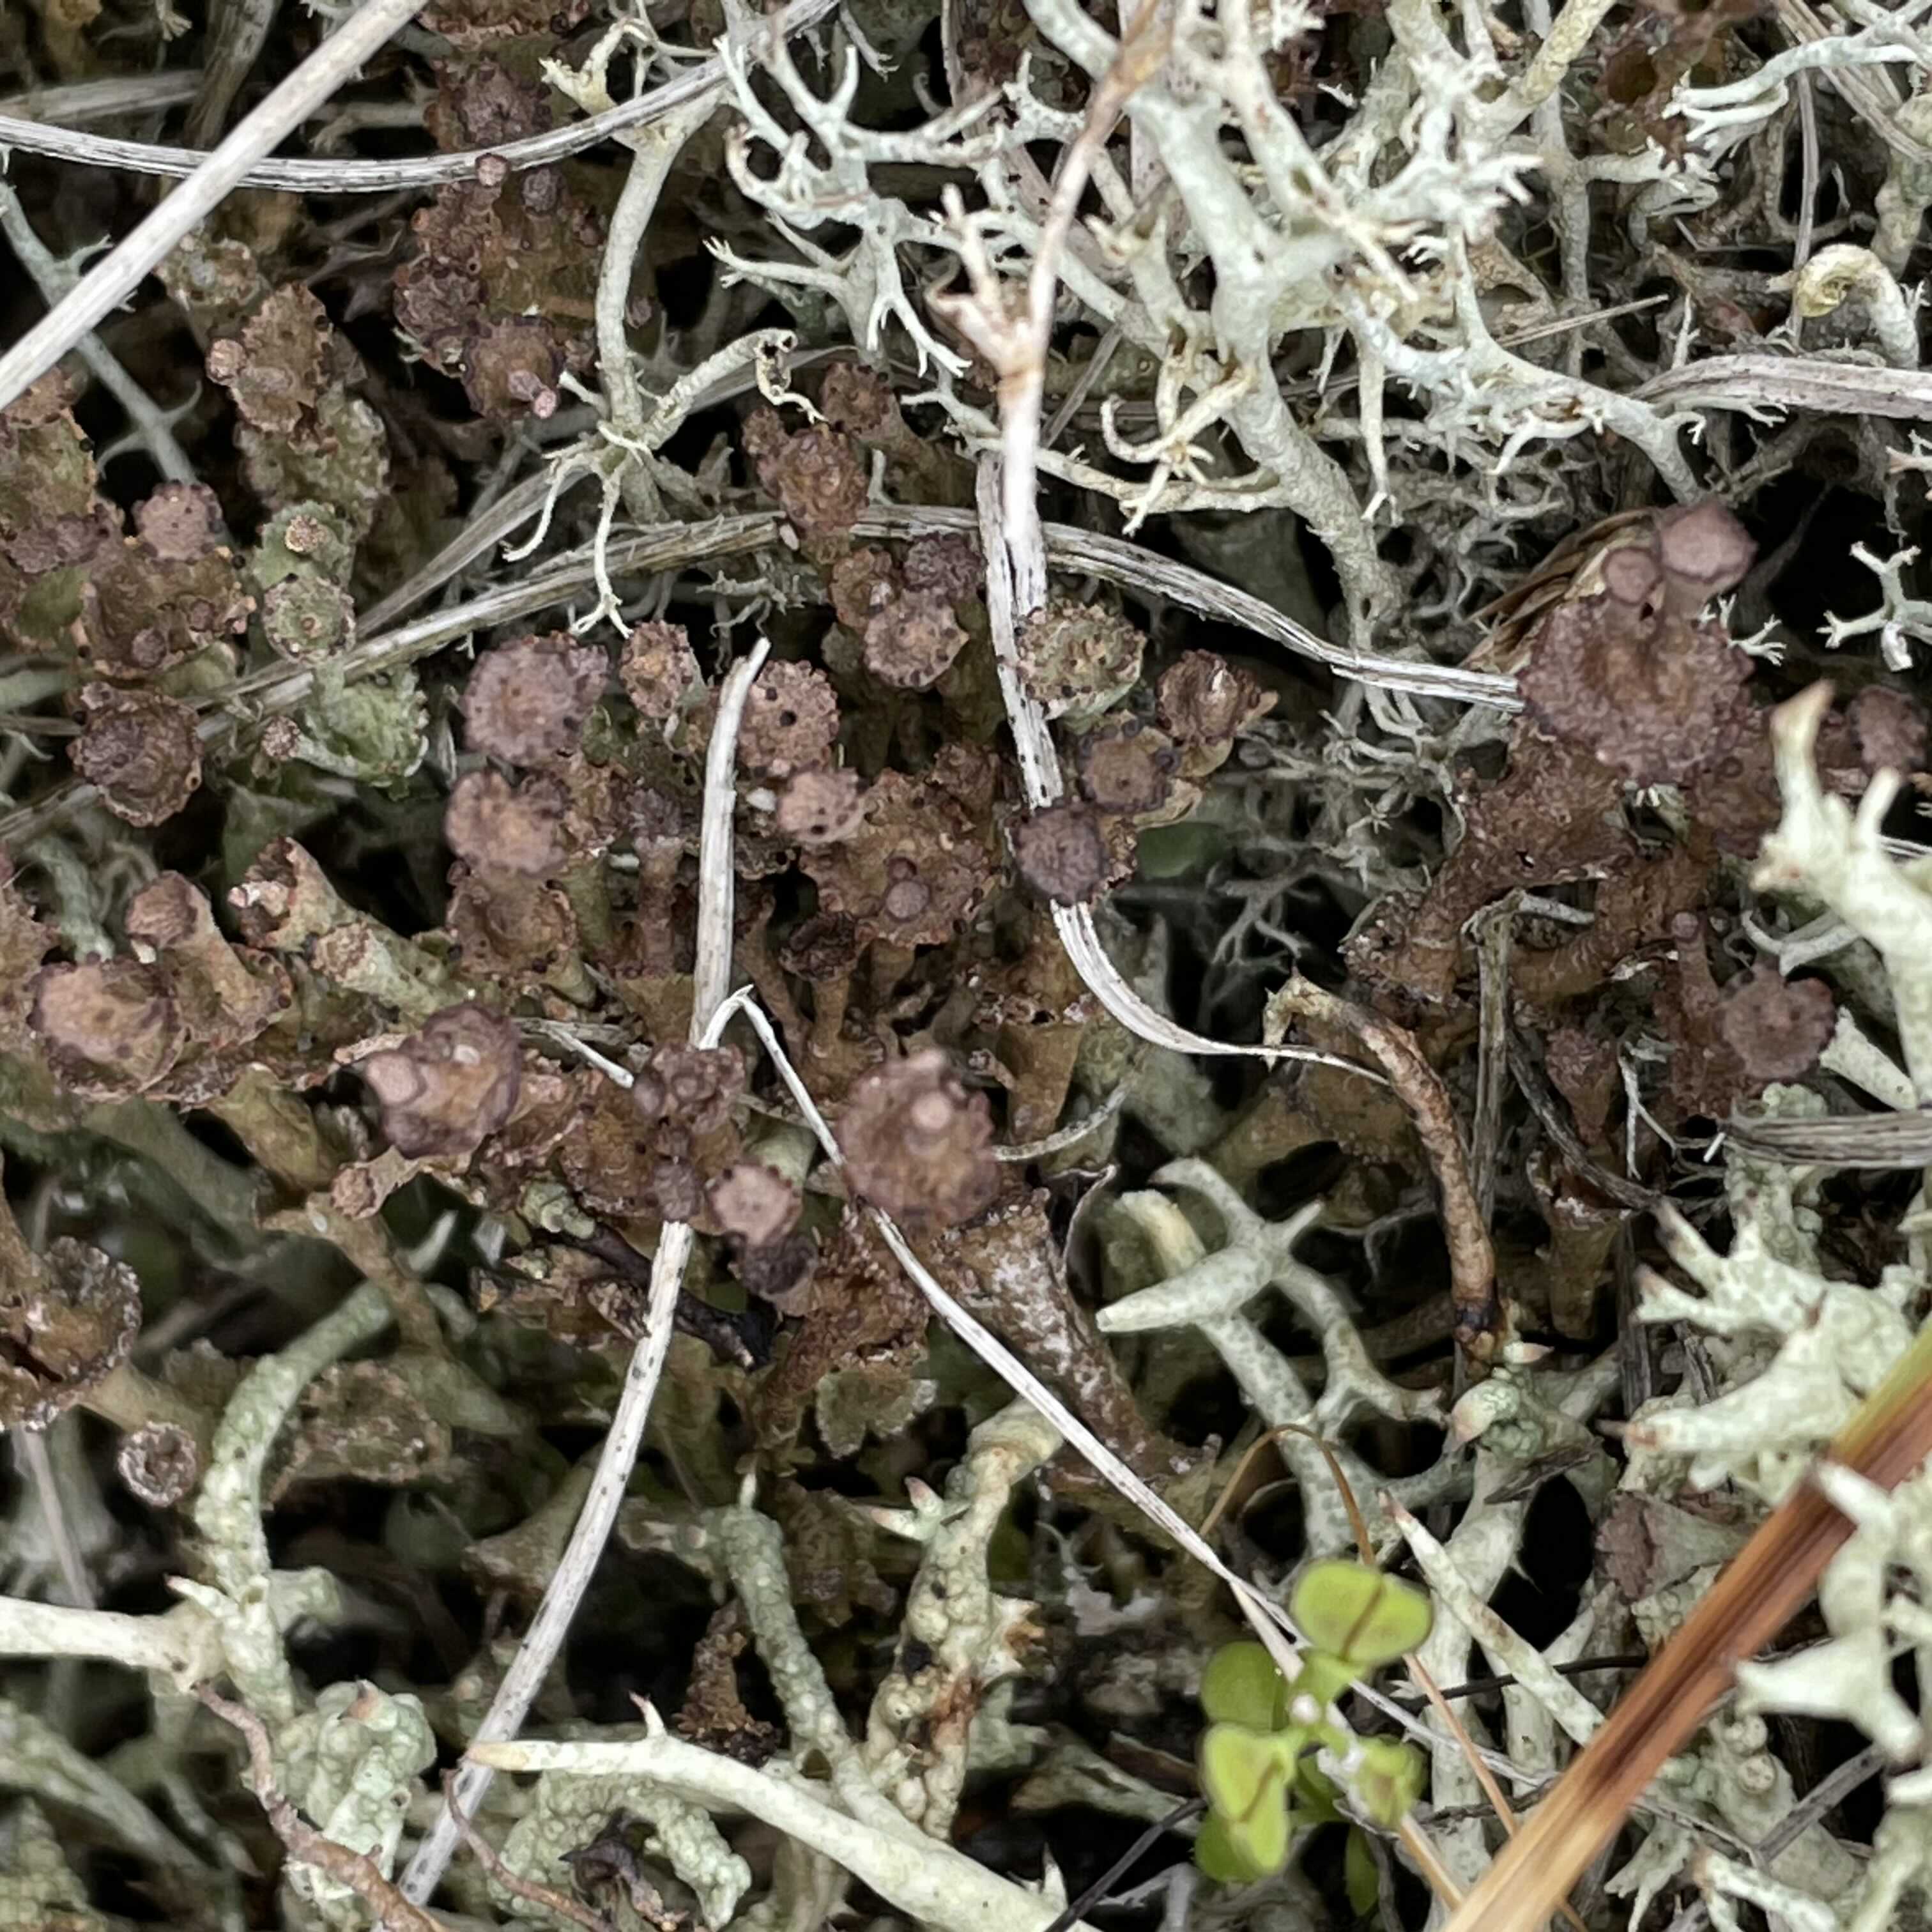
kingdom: Fungi
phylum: Ascomycota
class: Lecanoromycetes
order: Lecanorales
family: Cladoniaceae
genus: Cladonia
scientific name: Cladonia cervicornis
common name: etage-bægerlav
